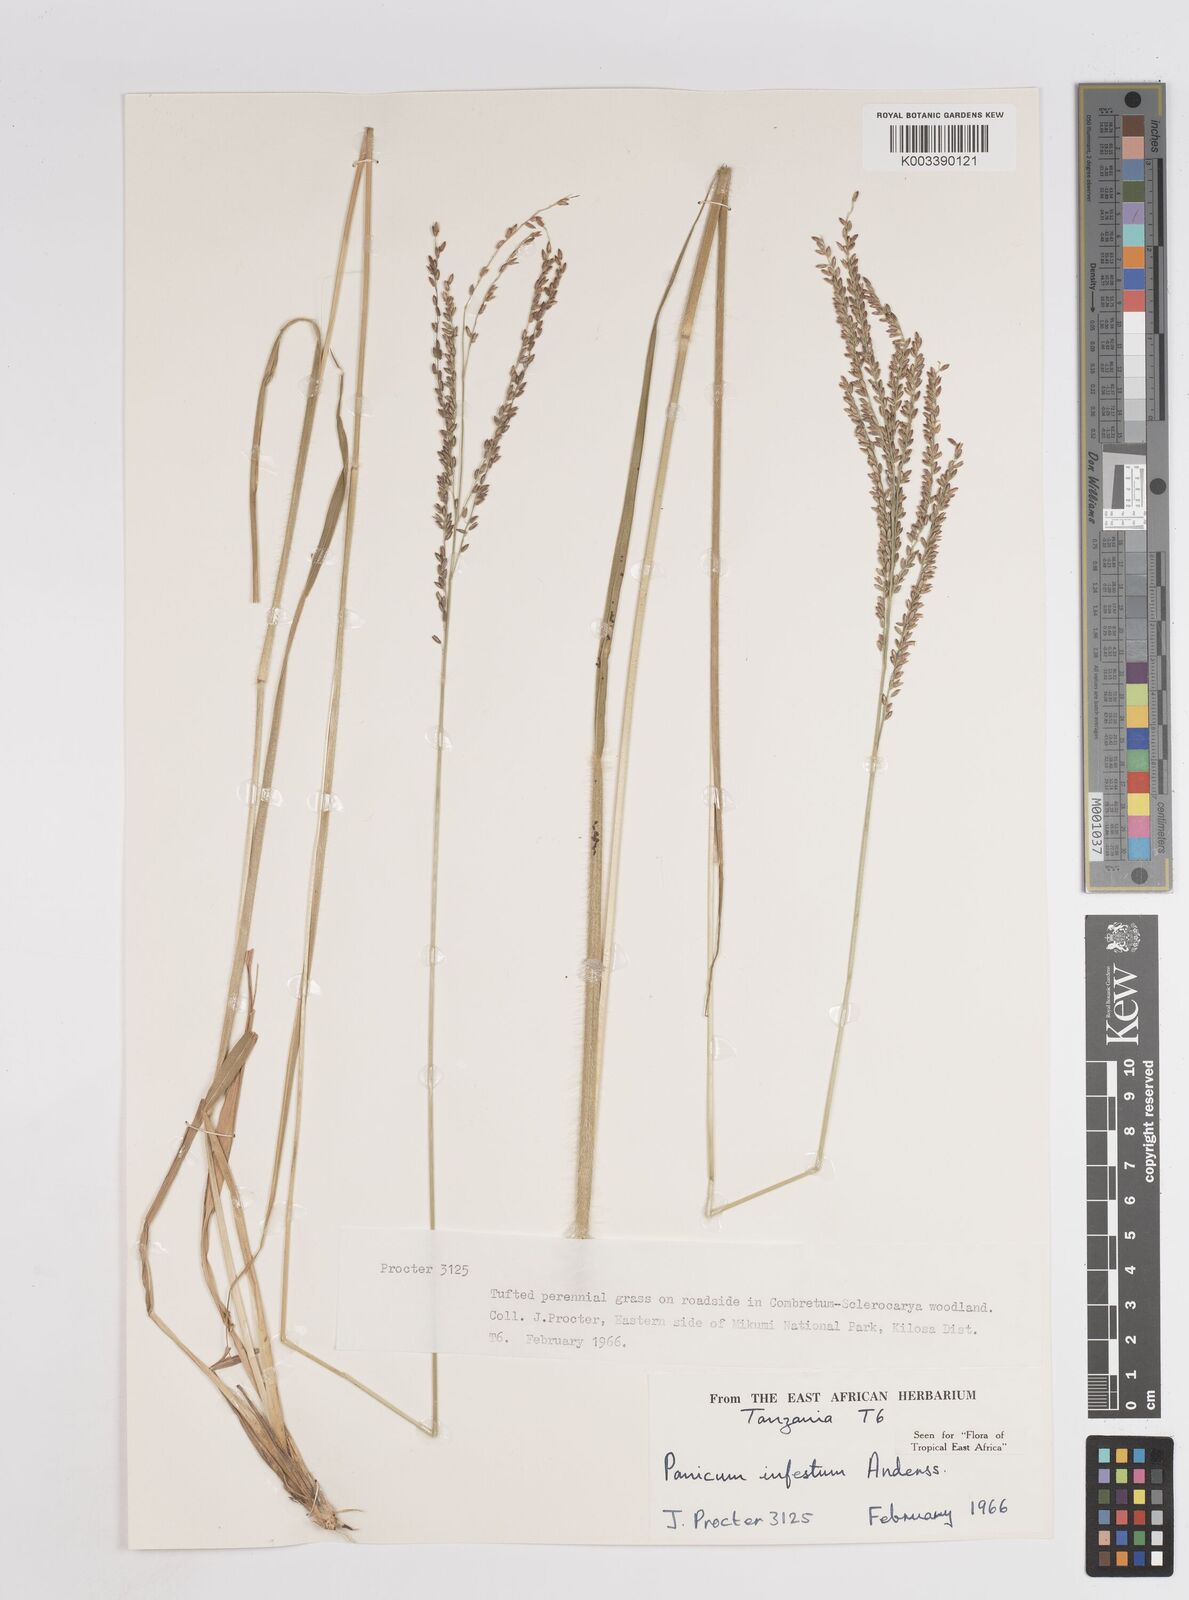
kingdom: Plantae
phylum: Tracheophyta
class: Liliopsida
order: Poales
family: Poaceae
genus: Megathyrsus
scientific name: Megathyrsus infestus
